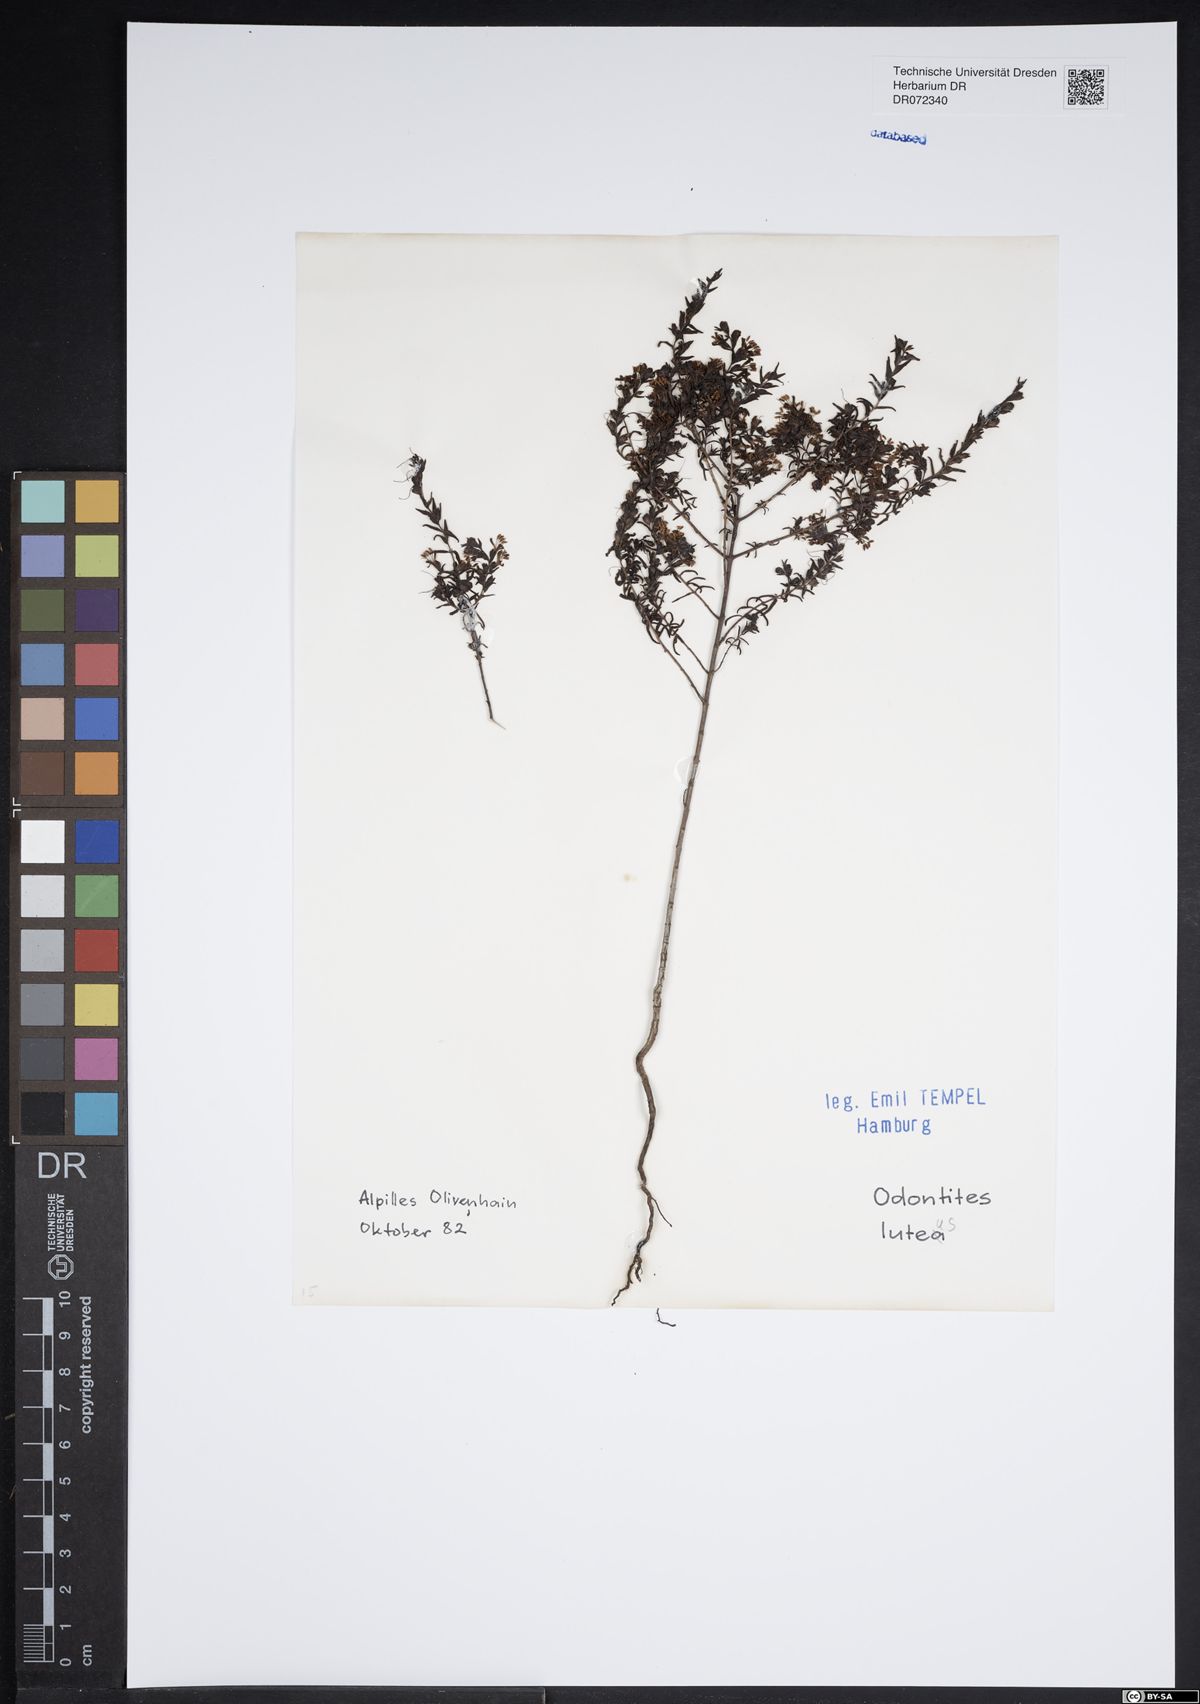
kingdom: Plantae
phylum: Tracheophyta
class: Magnoliopsida
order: Lamiales
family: Orobanchaceae
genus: Odontites
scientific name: Odontites luteus
